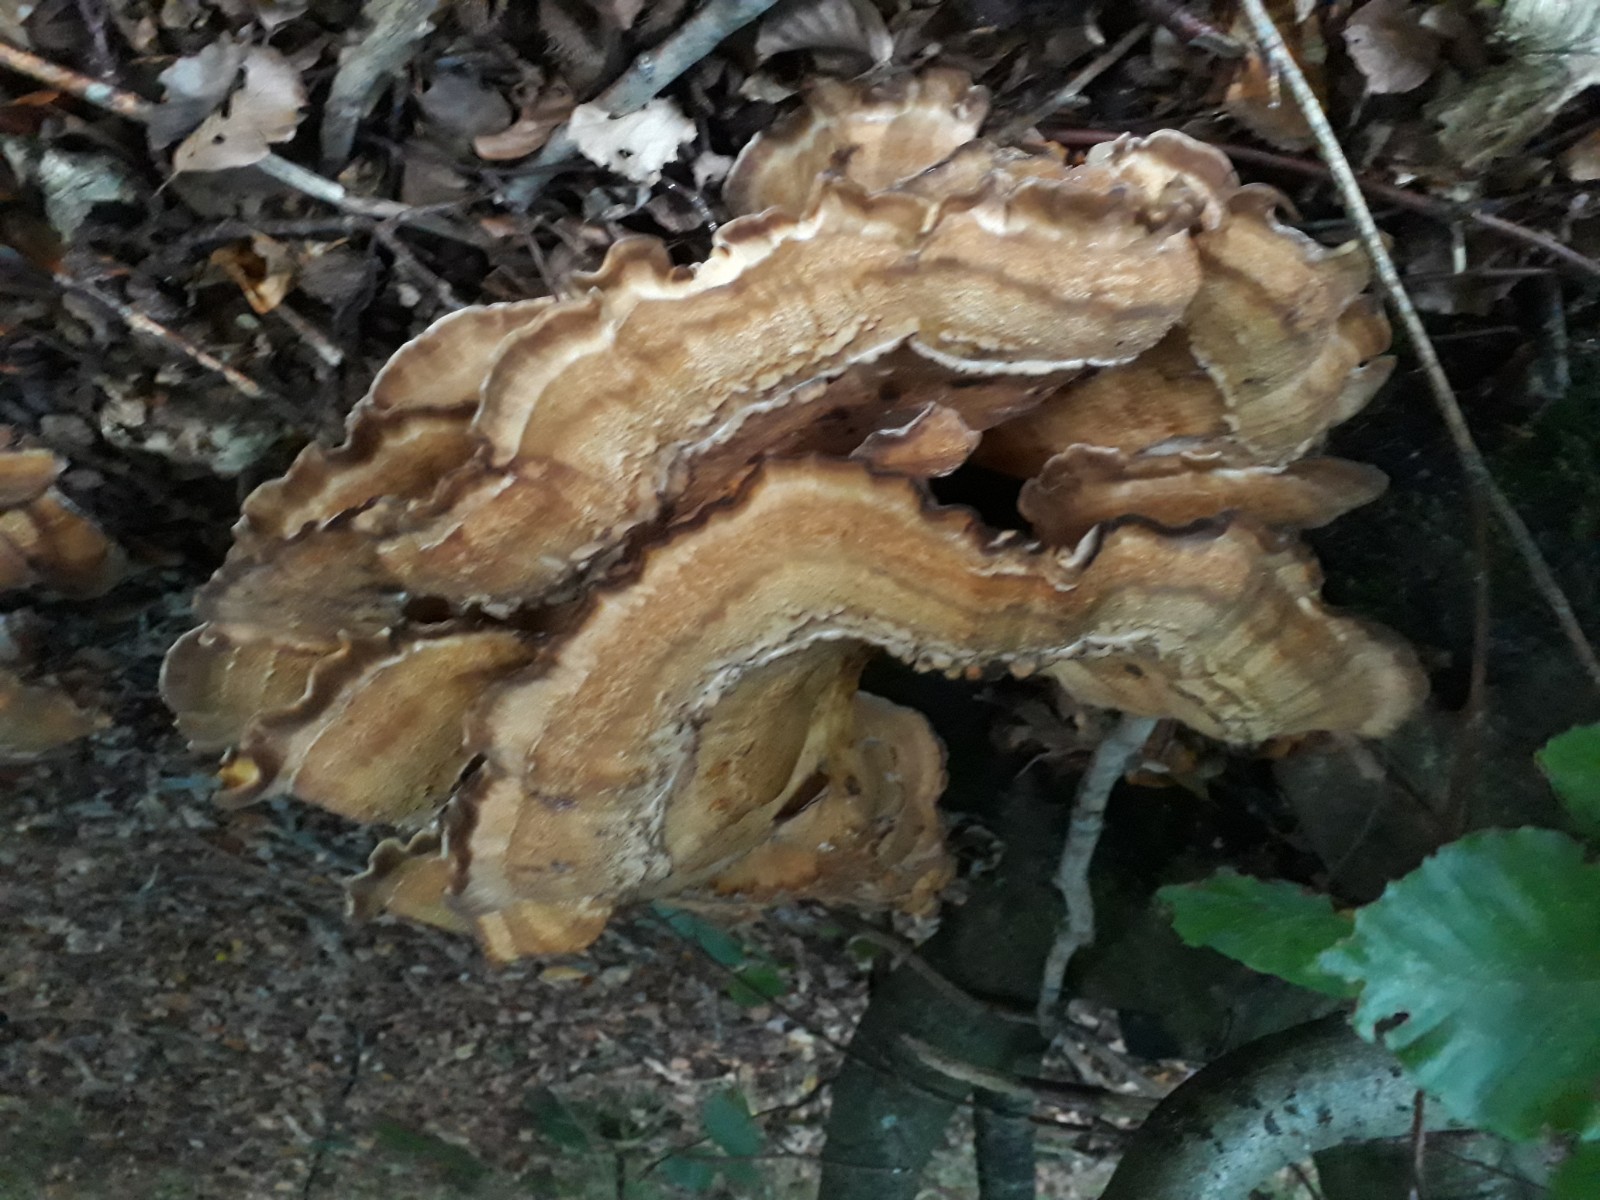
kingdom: Fungi
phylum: Basidiomycota
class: Agaricomycetes
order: Polyporales
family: Meripilaceae
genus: Meripilus
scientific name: Meripilus giganteus
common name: kæmpeporesvamp
